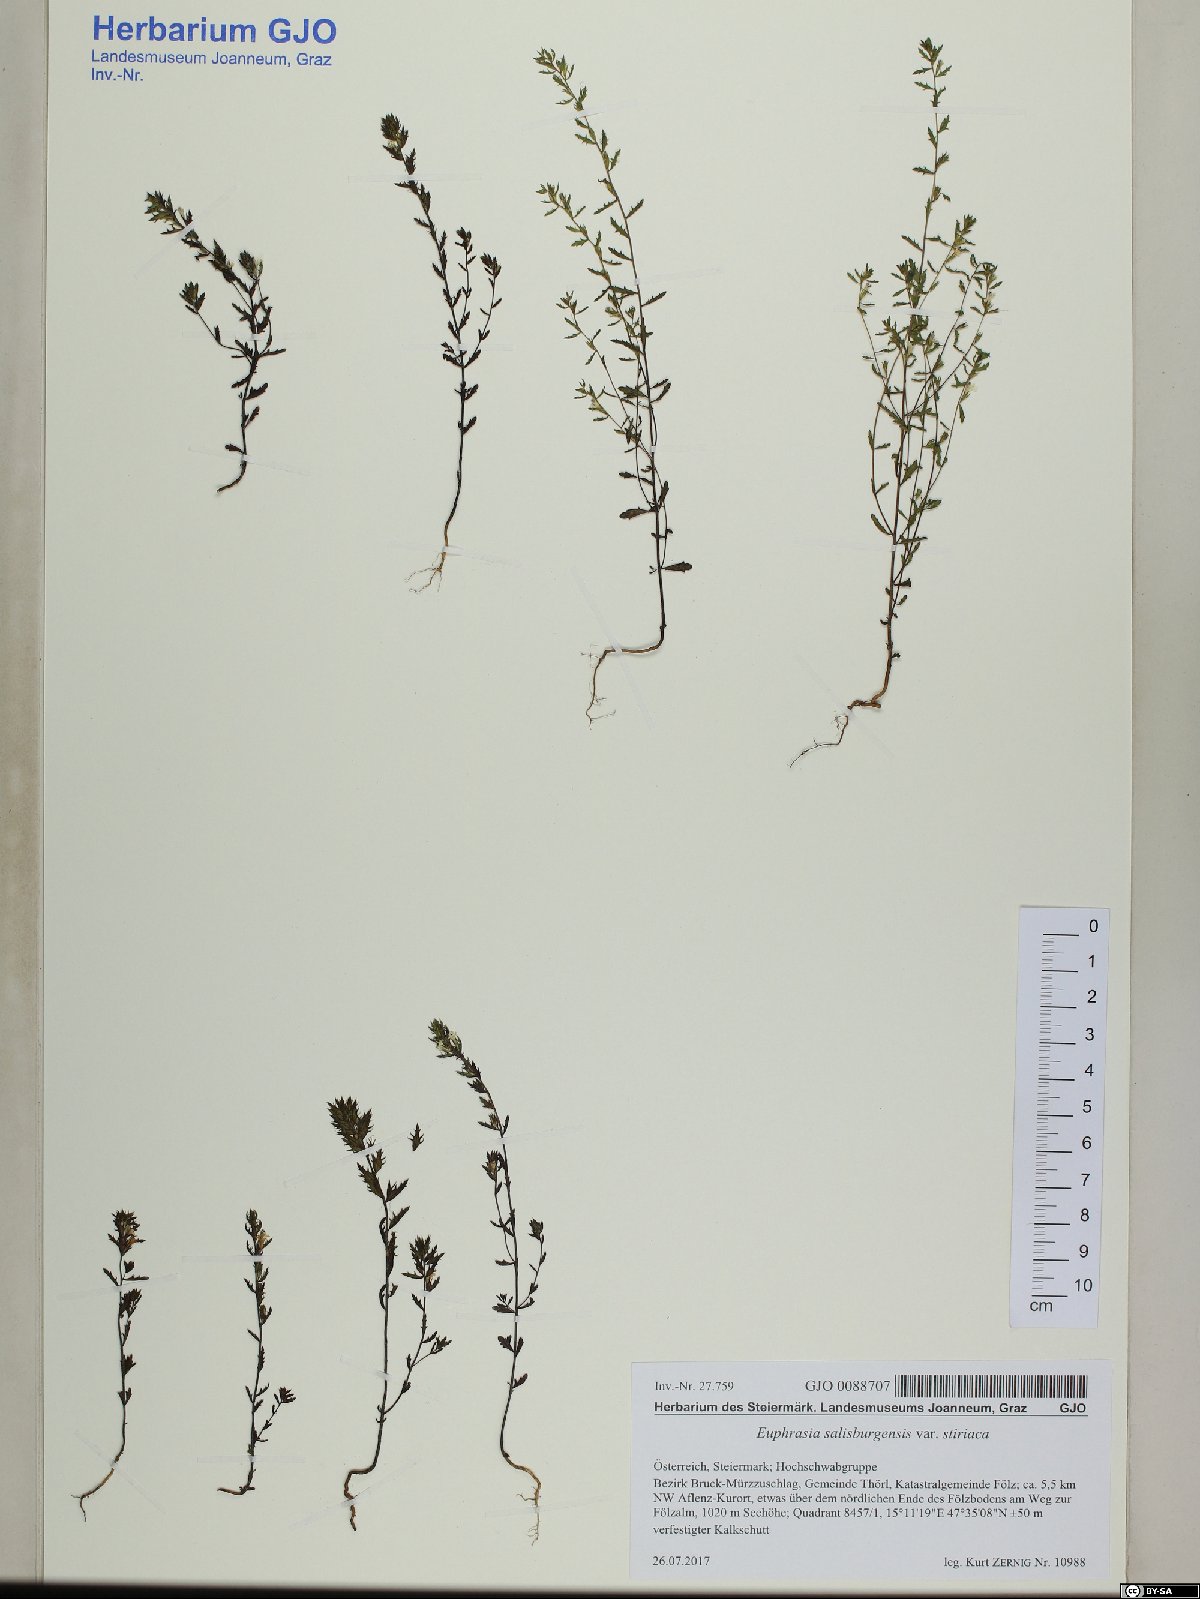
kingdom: Plantae
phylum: Tracheophyta
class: Magnoliopsida
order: Lamiales
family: Orobanchaceae
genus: Euphrasia
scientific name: Euphrasia salisburgensis
